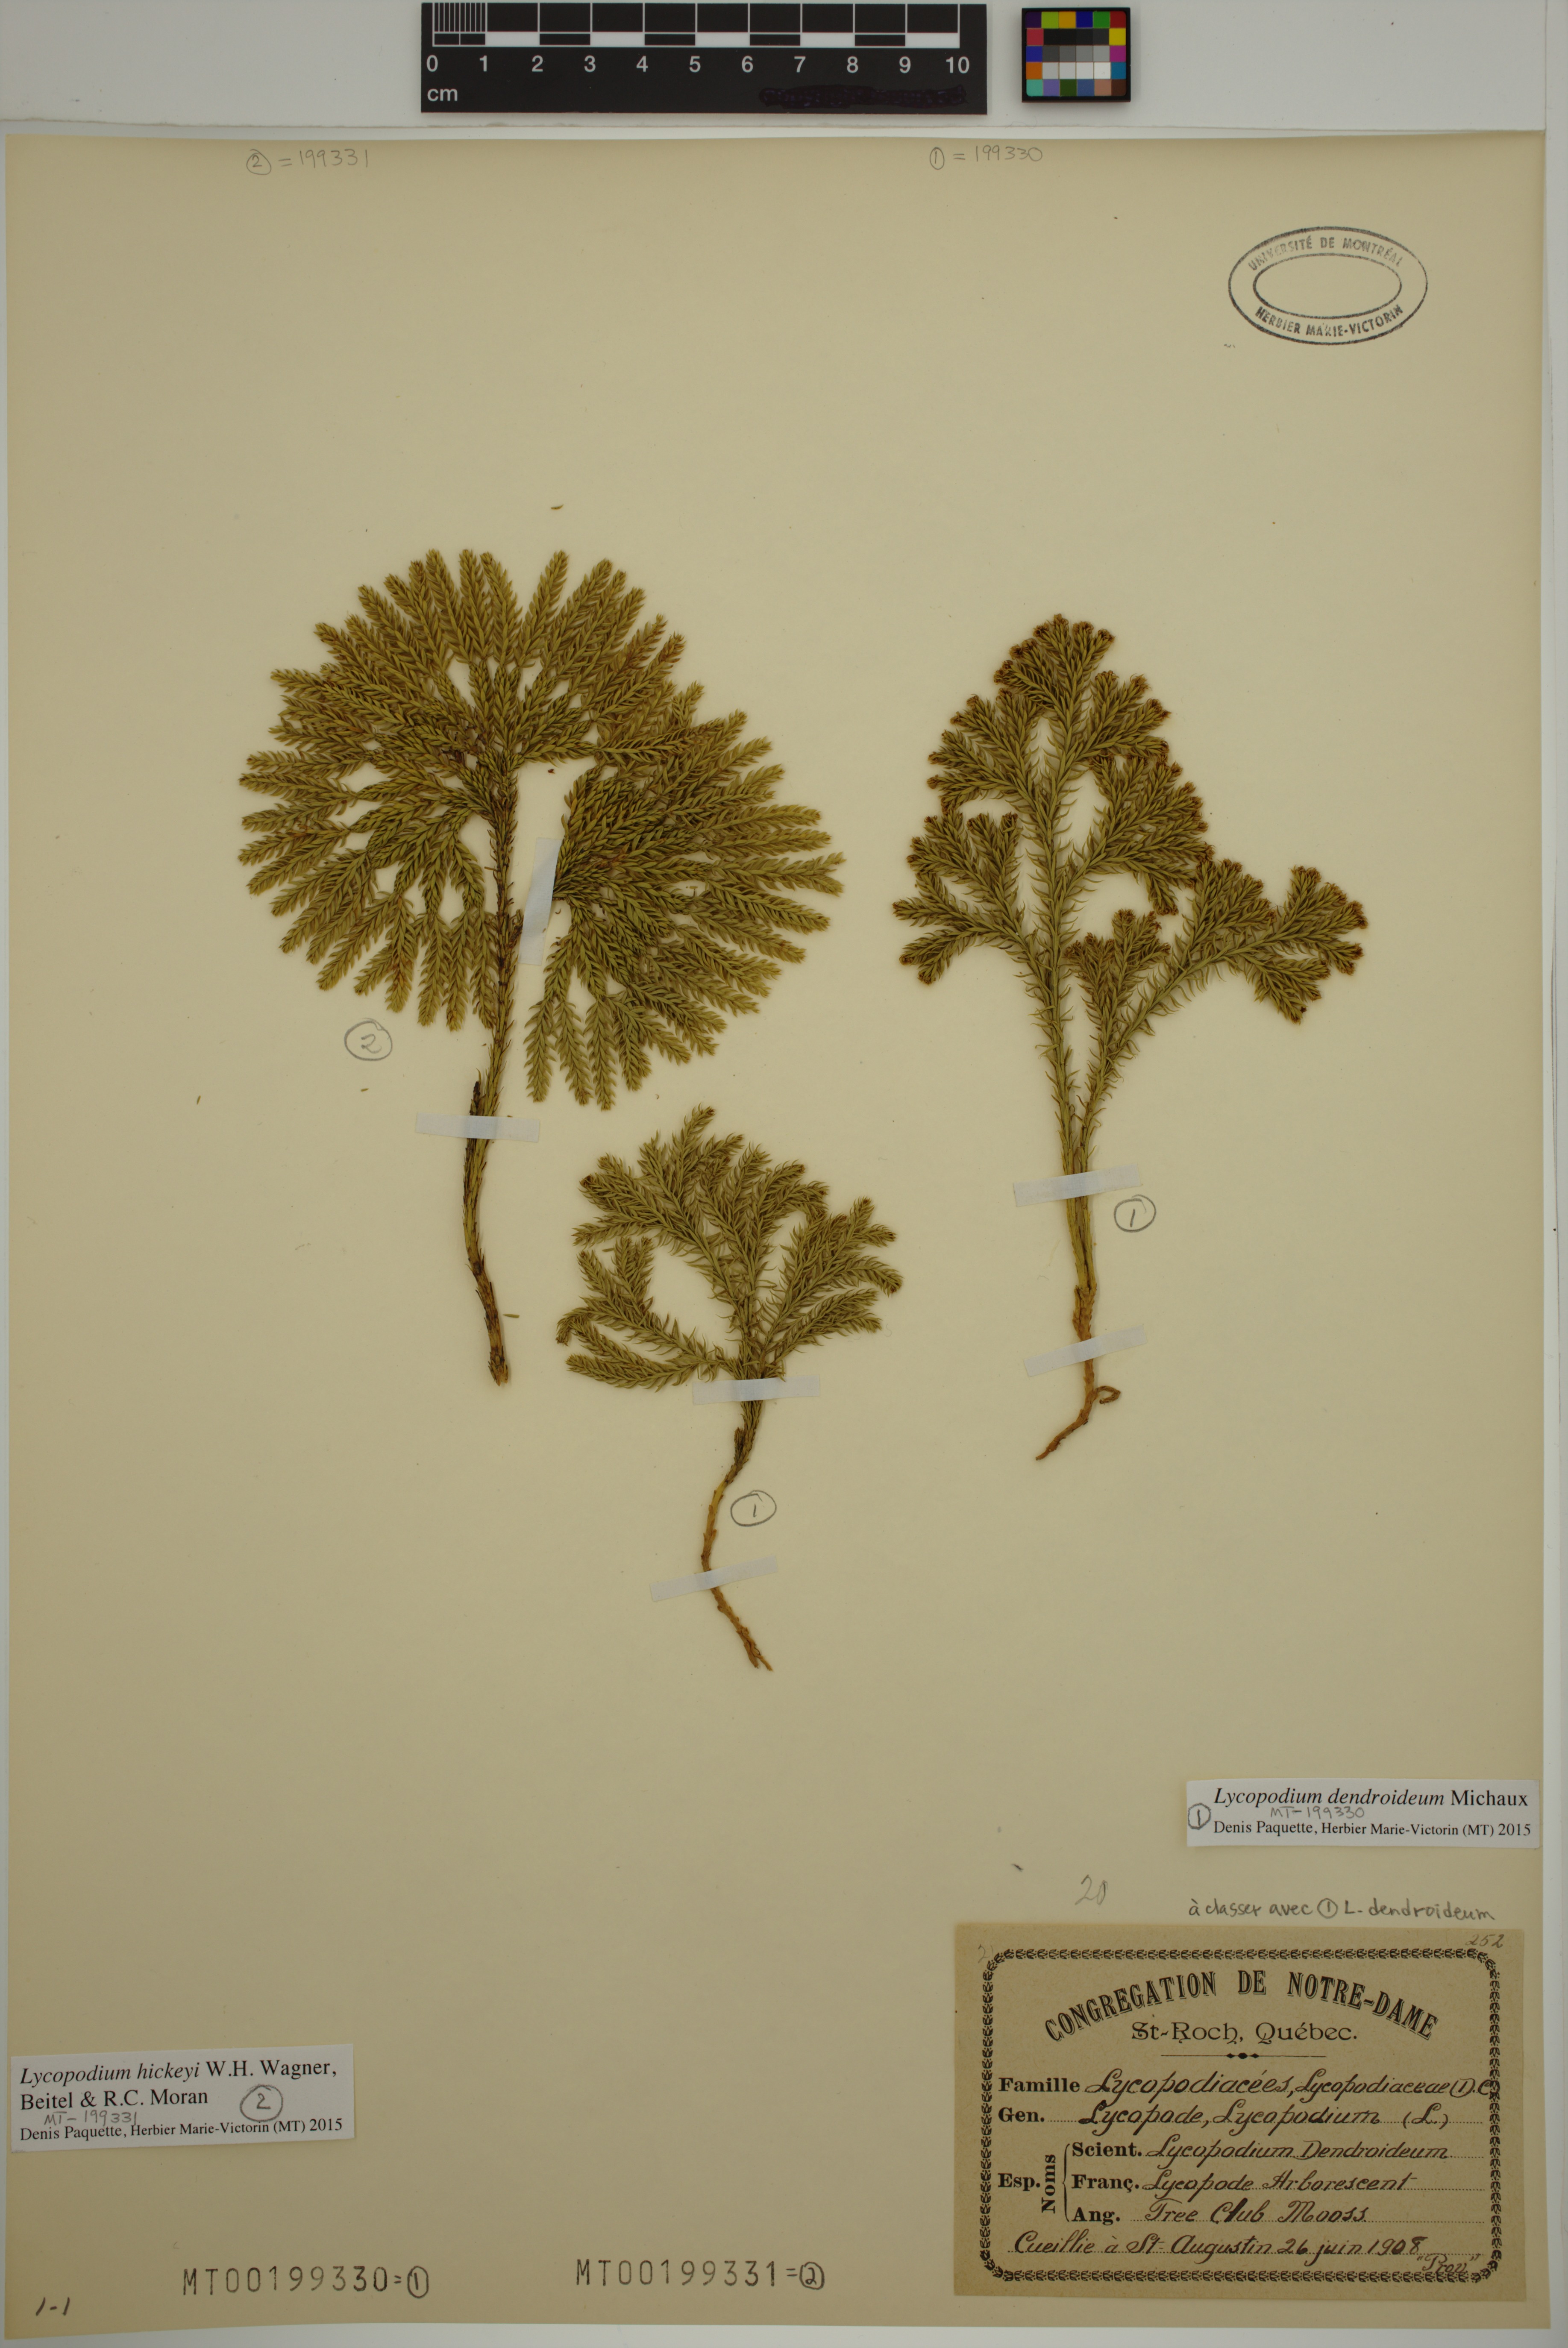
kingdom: Plantae
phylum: Tracheophyta
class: Lycopodiopsida
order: Lycopodiales
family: Lycopodiaceae
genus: Dendrolycopodium
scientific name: Dendrolycopodium hickeyi
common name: Hickey's clubmoss
